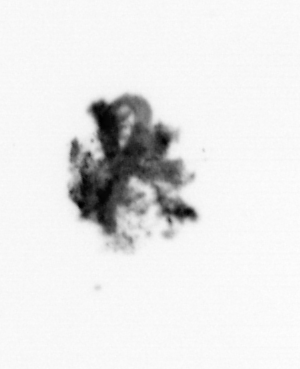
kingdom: Animalia
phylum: Arthropoda
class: Malacostraca
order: Decapoda
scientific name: Decapoda
